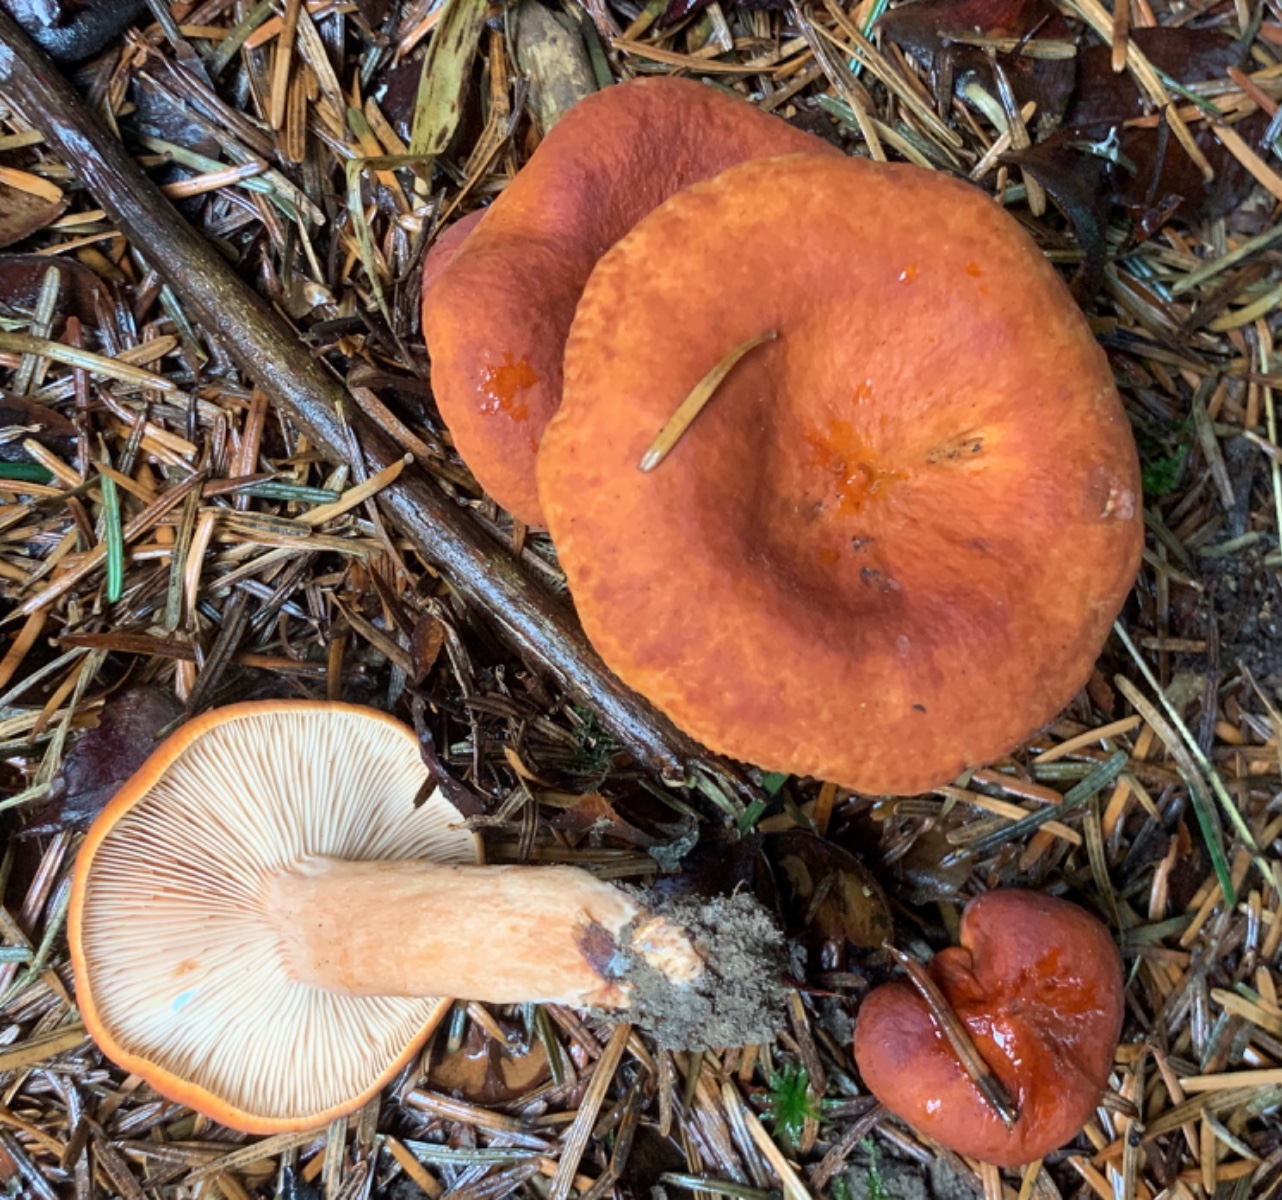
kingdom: Fungi
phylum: Basidiomycota
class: Agaricomycetes
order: Russulales
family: Russulaceae
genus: Lactarius
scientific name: Lactarius aurantiacus
